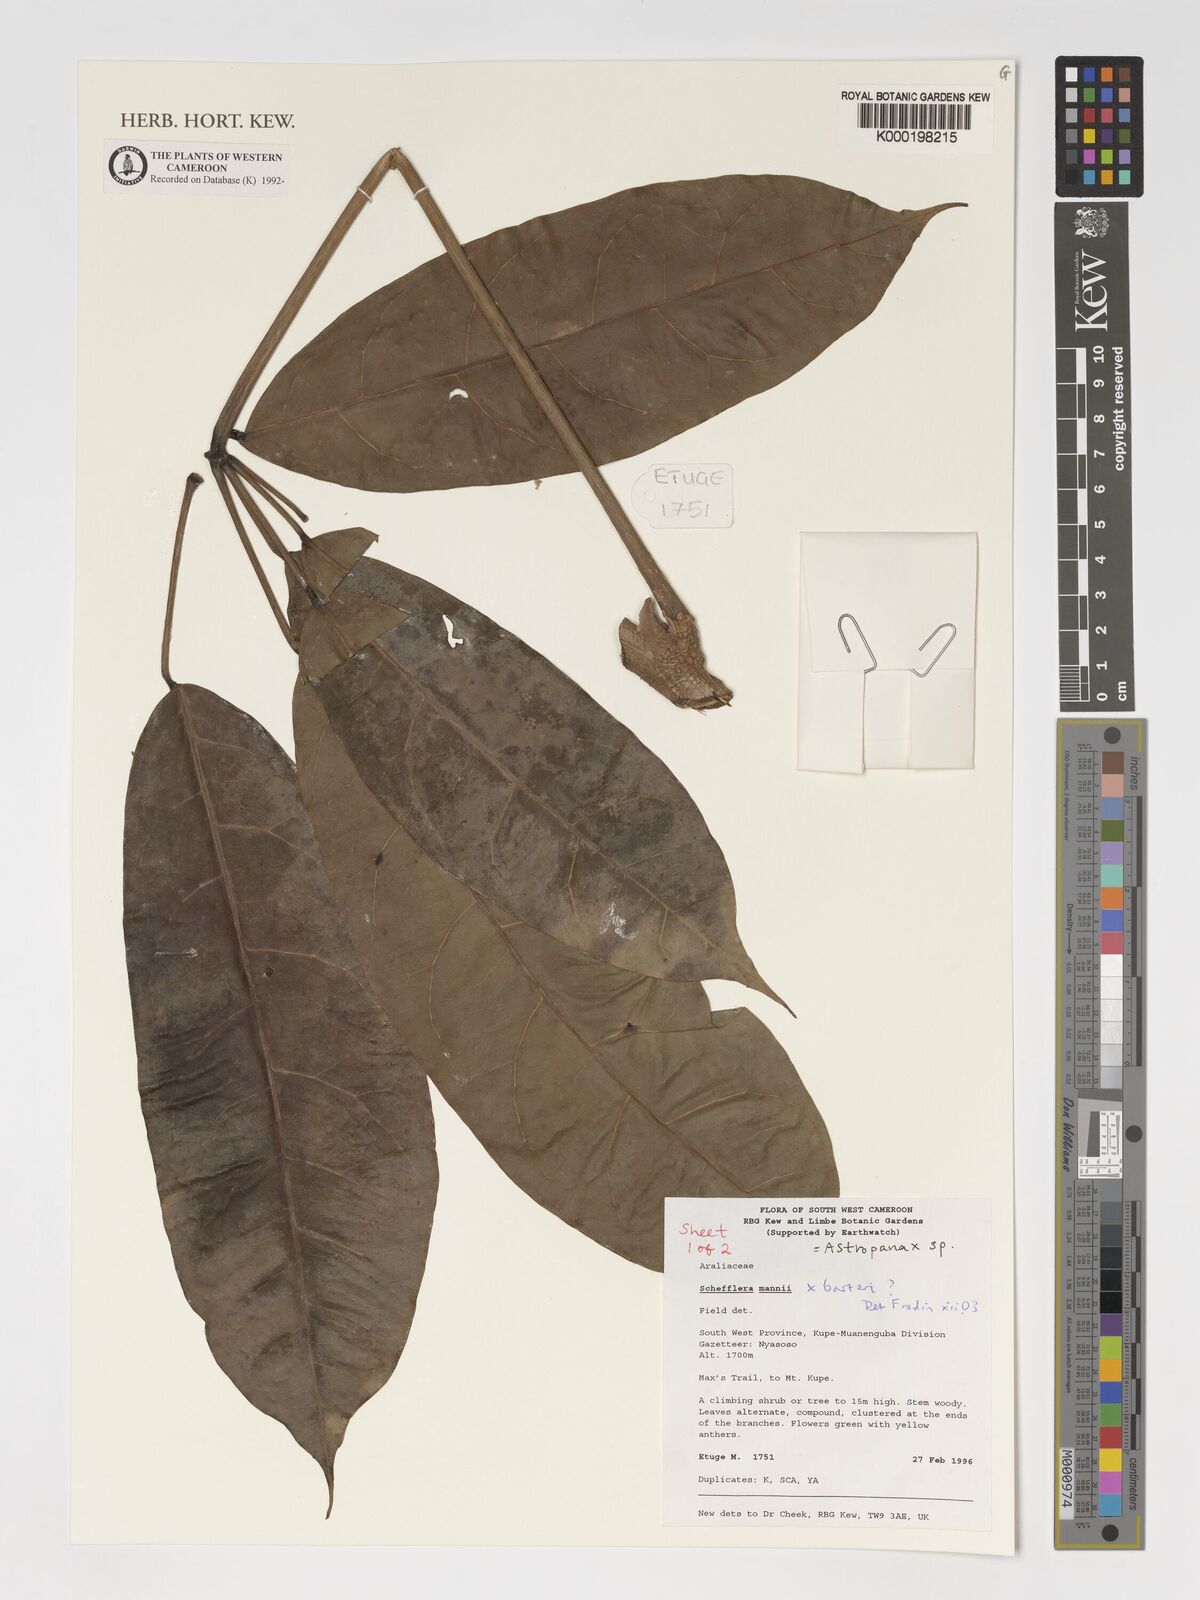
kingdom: Plantae
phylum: Tracheophyta
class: Magnoliopsida
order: Apiales
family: Araliaceae
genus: Astropanax
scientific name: Astropanax
